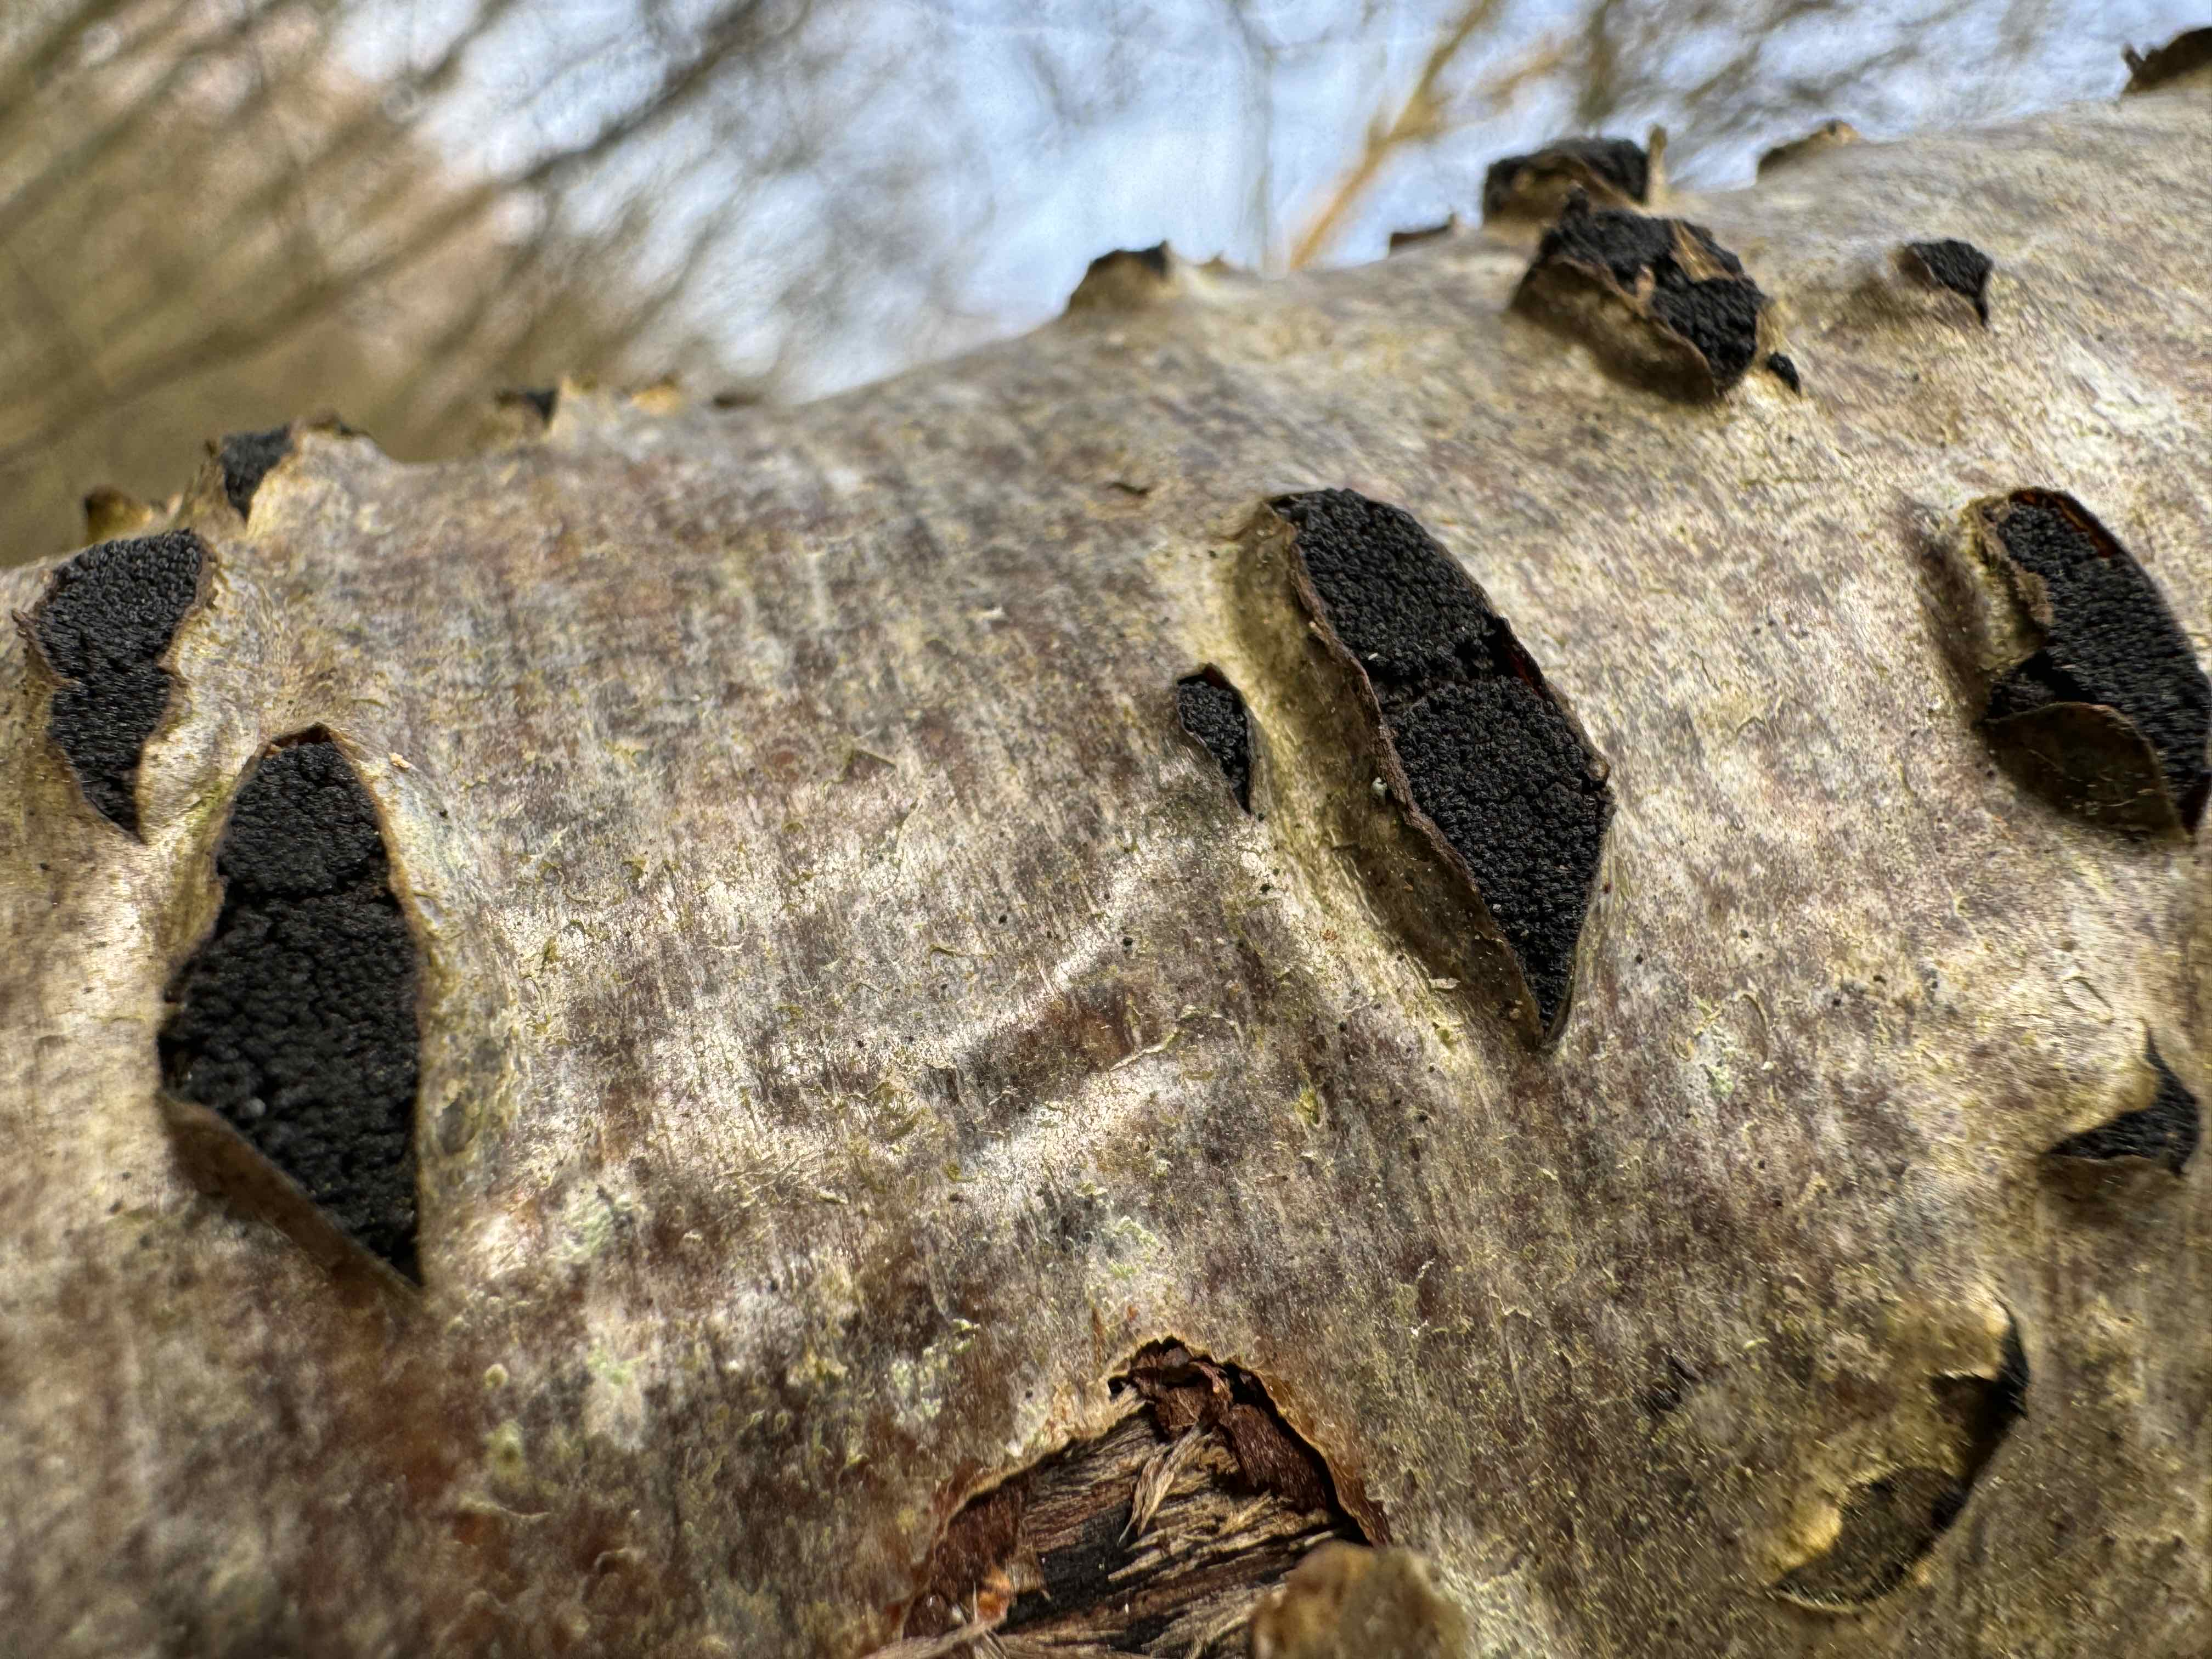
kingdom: Fungi
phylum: Ascomycota
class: Sordariomycetes
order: Xylariales
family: Diatrypaceae
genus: Eutypella
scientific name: Eutypella sorbi
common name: rønne-kulskorpe
